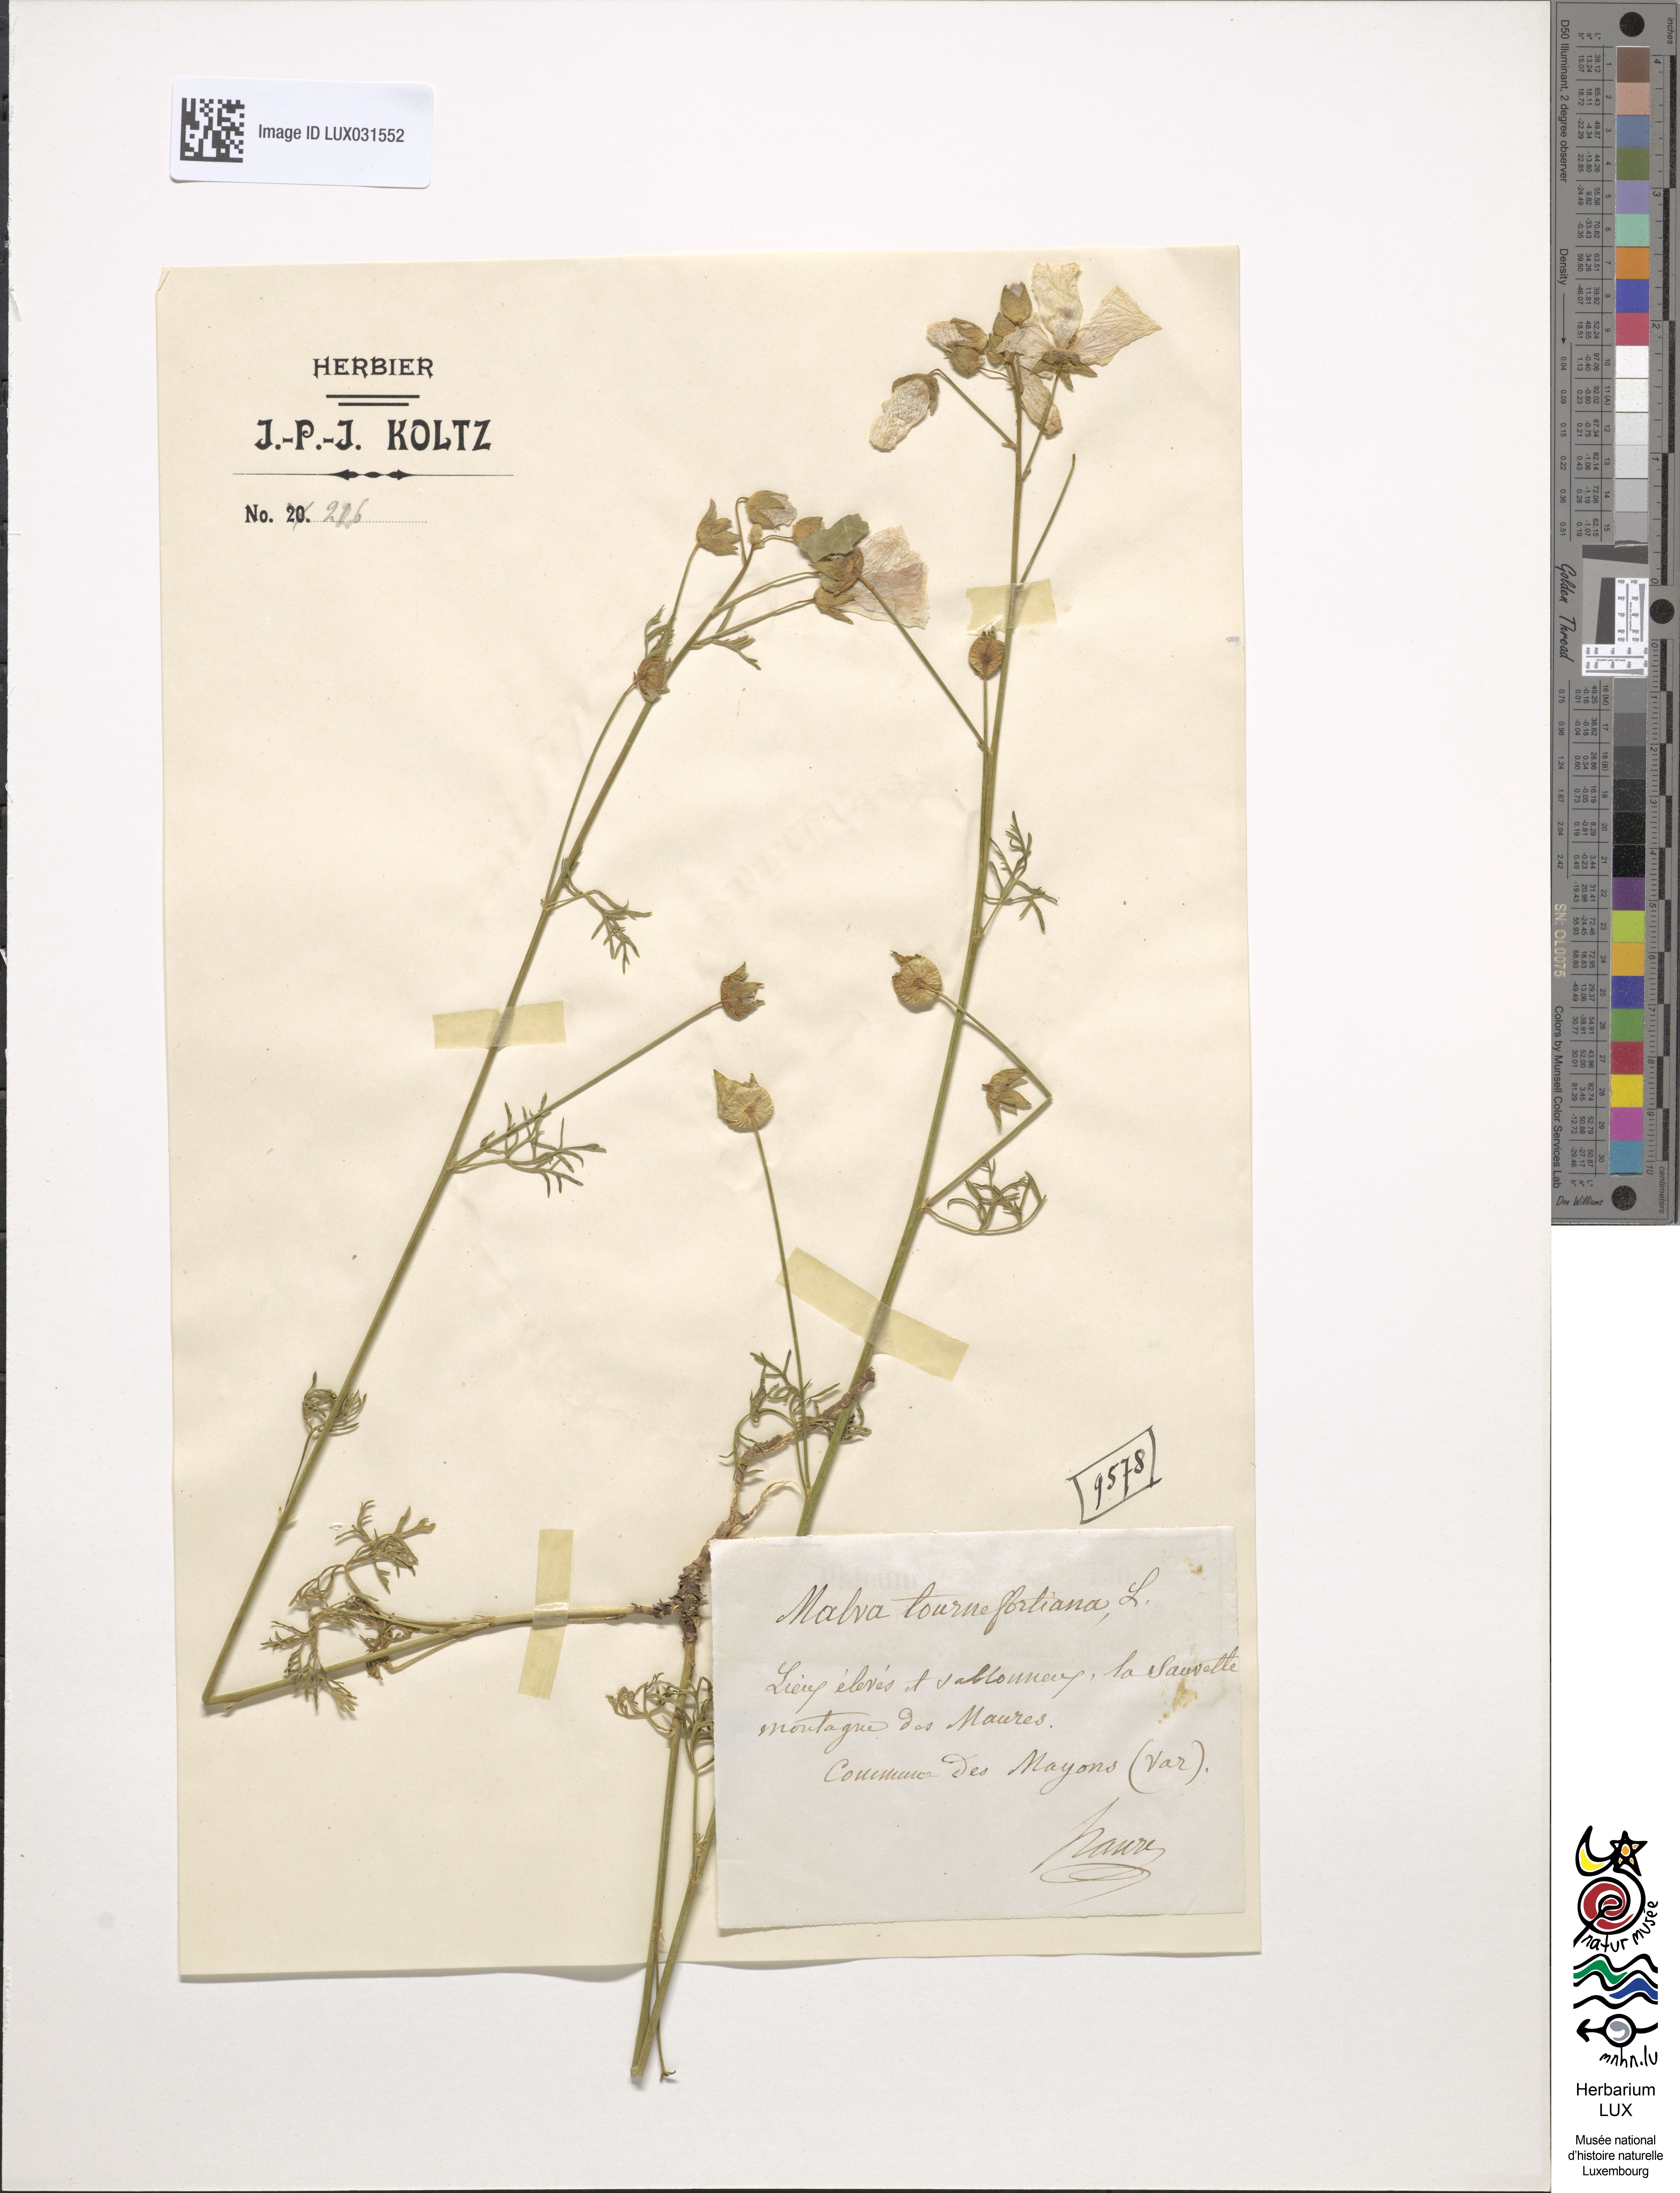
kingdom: Plantae
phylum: Tracheophyta
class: Magnoliopsida
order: Malvales
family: Malvaceae
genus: Malva
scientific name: Malva tournefortiana
